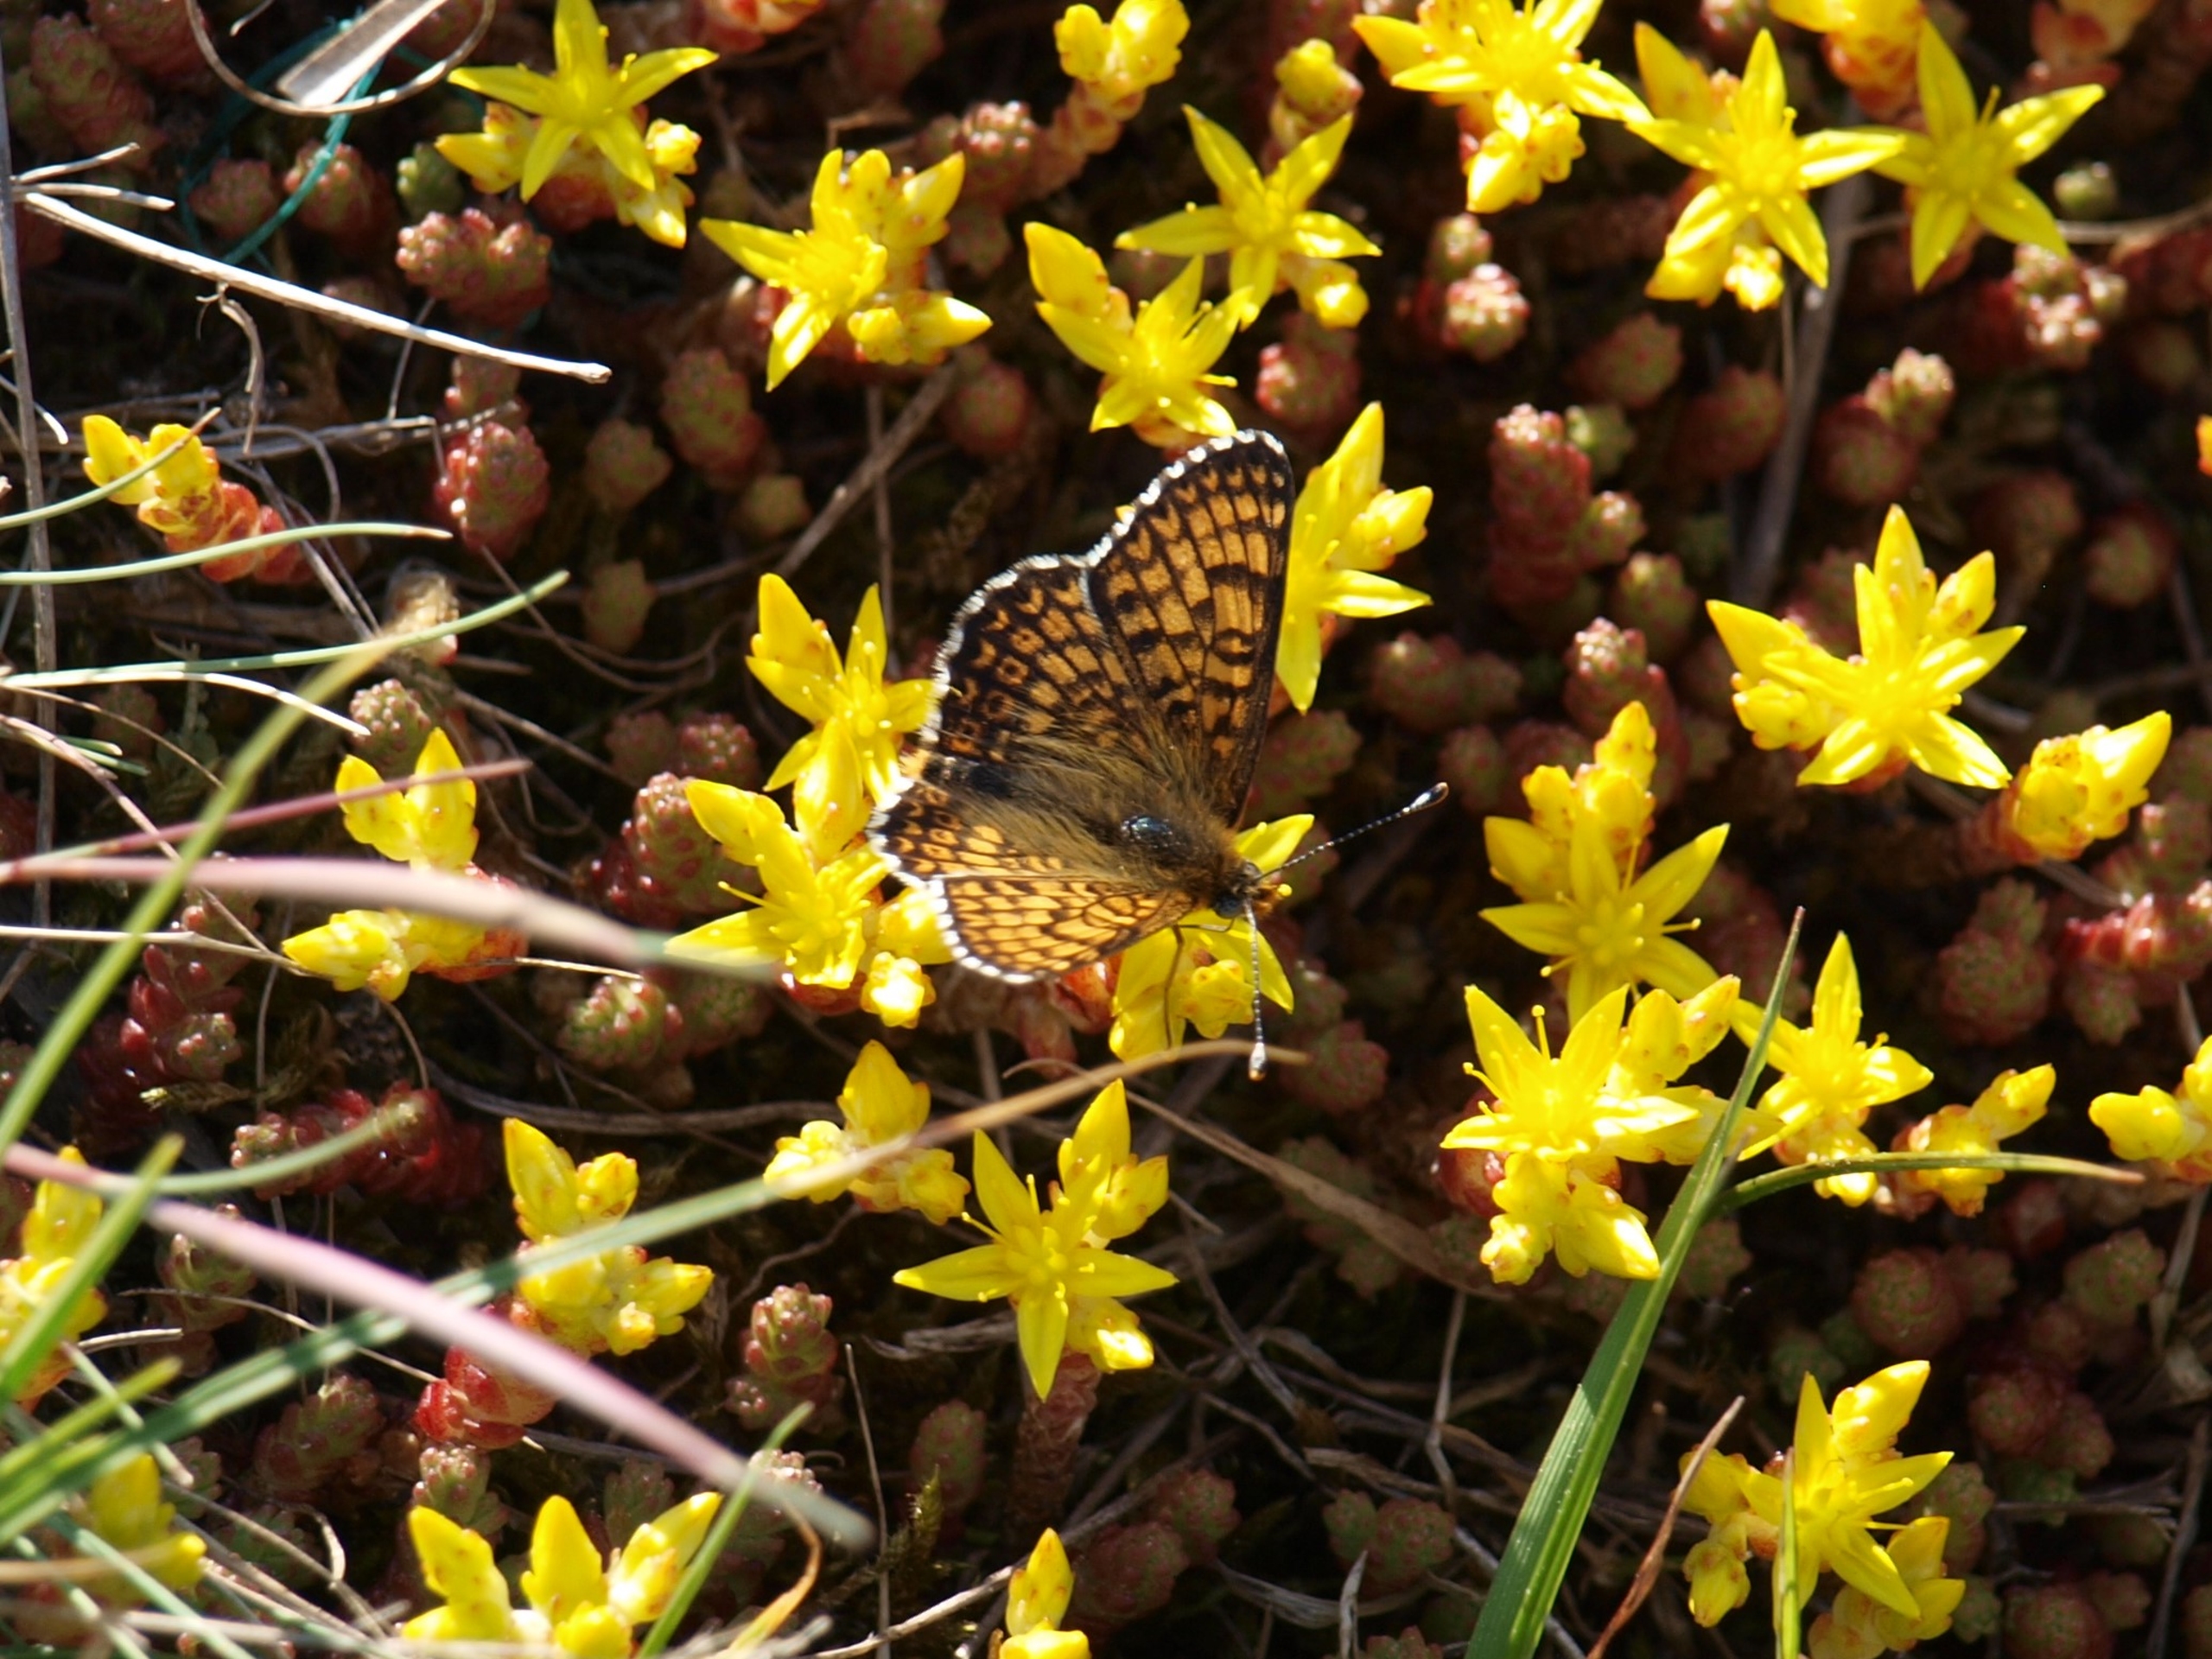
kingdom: Animalia
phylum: Arthropoda
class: Insecta
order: Lepidoptera
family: Nymphalidae
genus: Melitaea
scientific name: Melitaea cinxia
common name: Okkergul pletvinge
